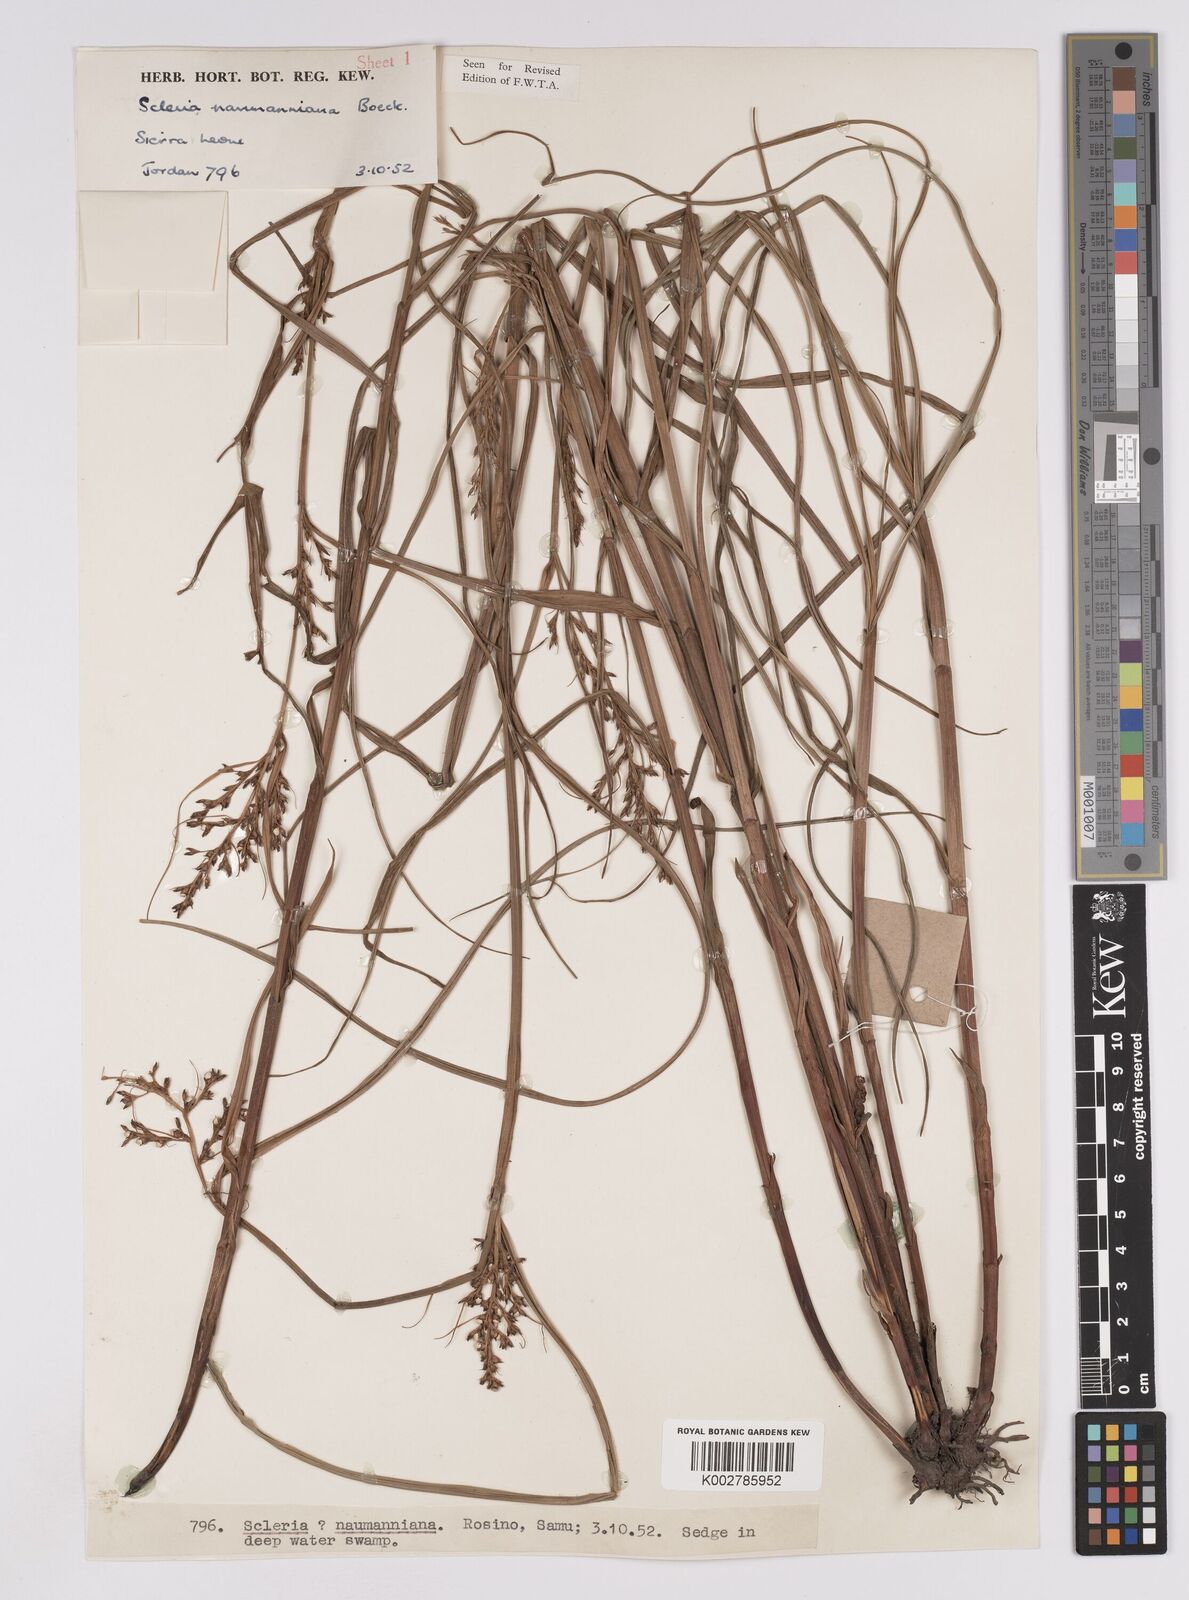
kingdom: Plantae
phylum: Tracheophyta
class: Liliopsida
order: Poales
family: Cyperaceae
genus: Scleria
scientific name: Scleria naumanniana
